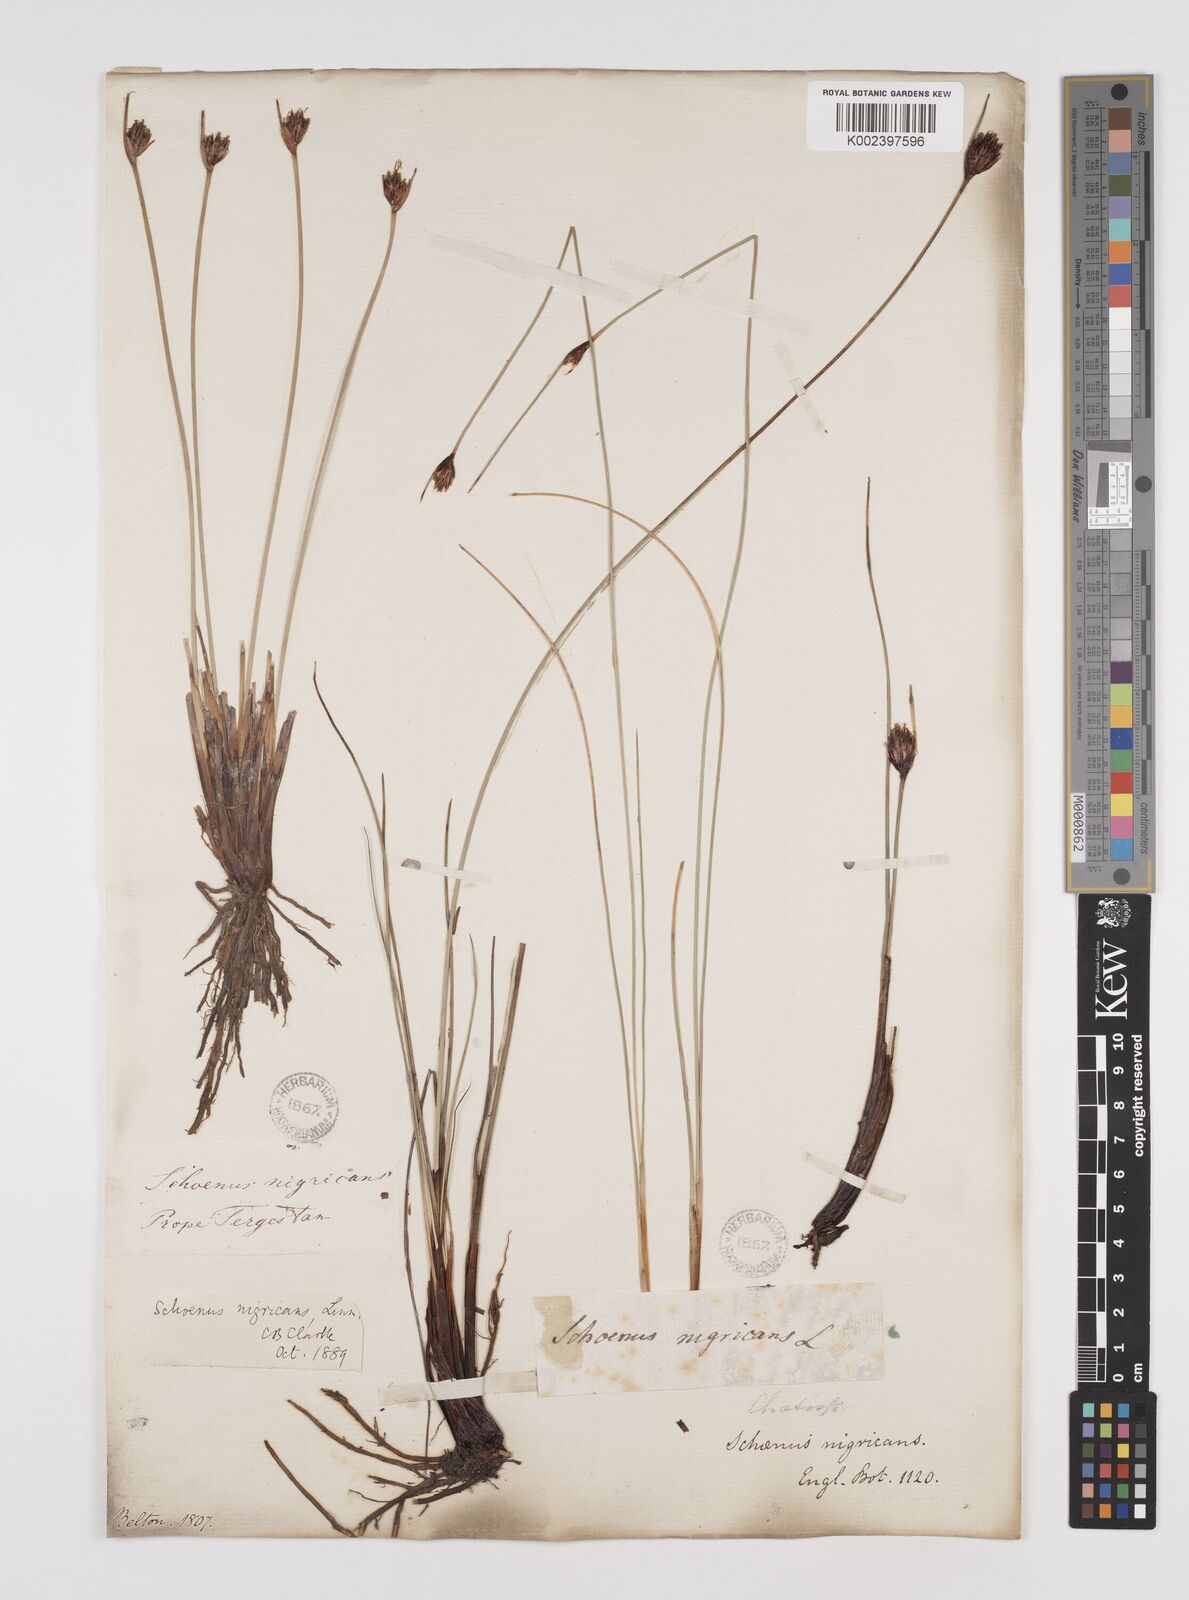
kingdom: Plantae
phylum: Tracheophyta
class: Liliopsida
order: Poales
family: Cyperaceae
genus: Schoenus
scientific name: Schoenus nigricans
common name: Black bog-rush
